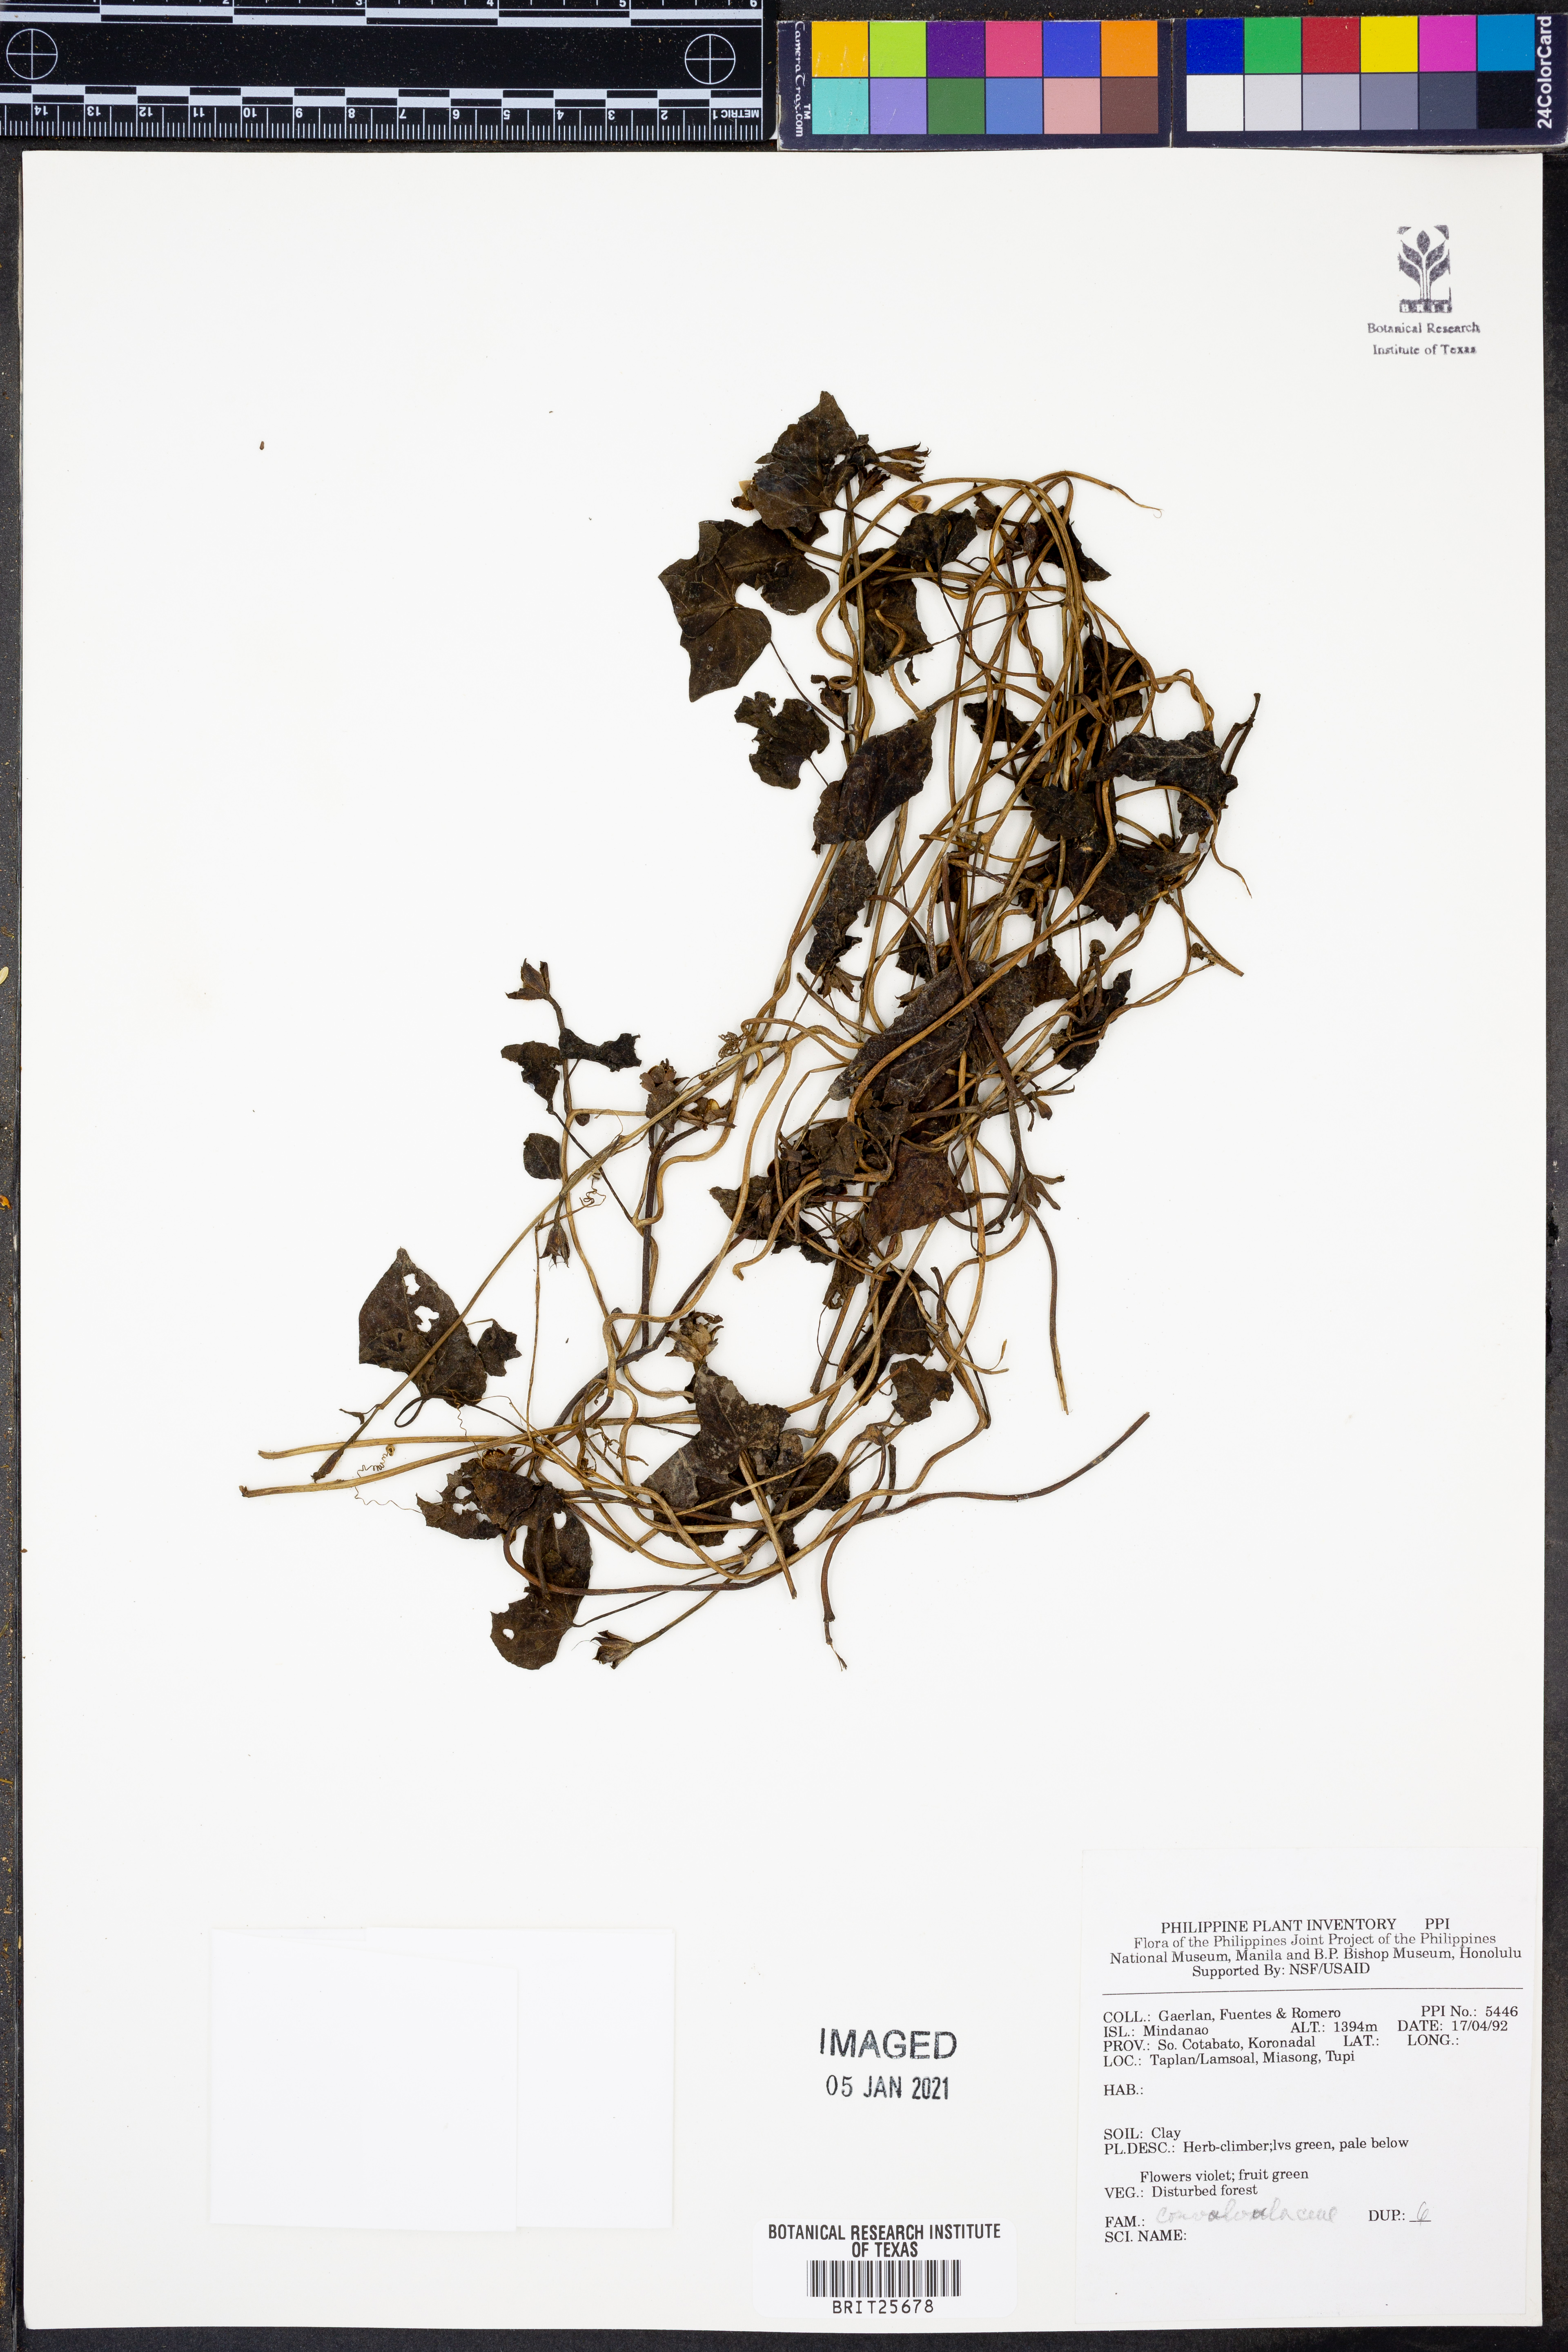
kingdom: Plantae
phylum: Tracheophyta
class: Magnoliopsida
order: Solanales
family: Convolvulaceae
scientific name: Convolvulaceae
